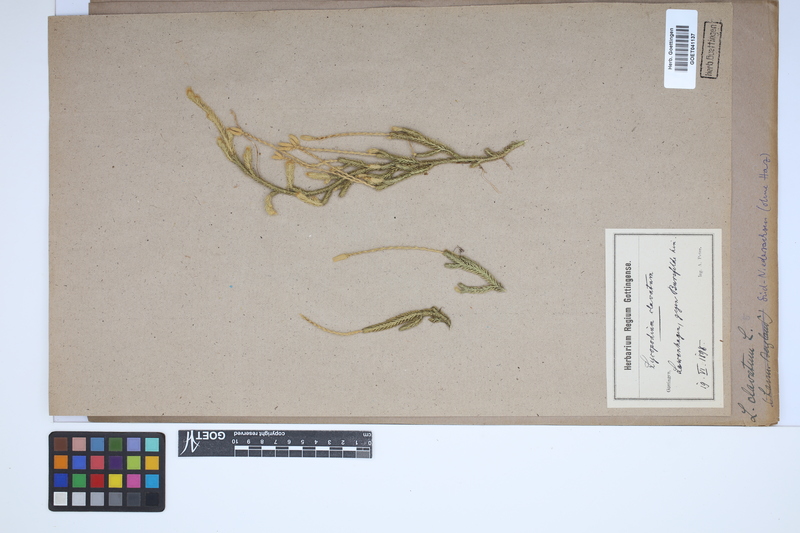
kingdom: Plantae
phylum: Tracheophyta
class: Lycopodiopsida
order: Lycopodiales
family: Lycopodiaceae
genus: Lycopodium
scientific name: Lycopodium clavatum
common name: Stag's-horn clubmoss
